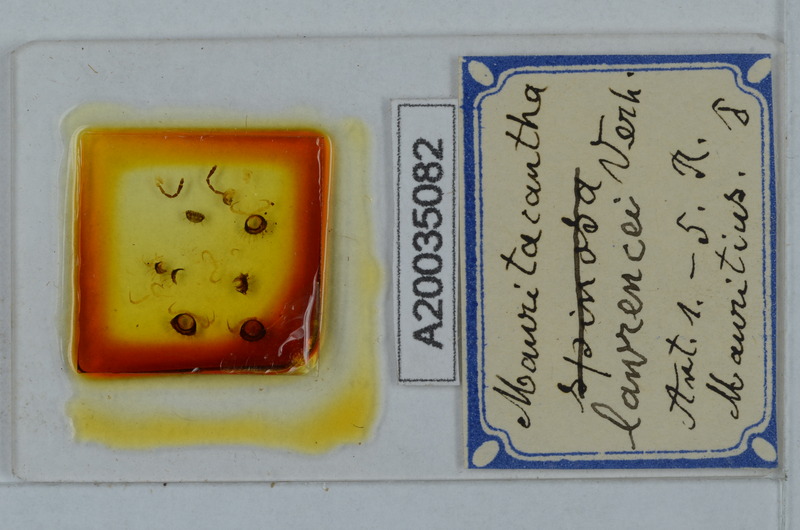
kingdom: Animalia
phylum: Arthropoda
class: Diplopoda
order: Polydesmida
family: Trichopolydesmidae
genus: Mauritacantha
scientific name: Mauritacantha lawrencei
